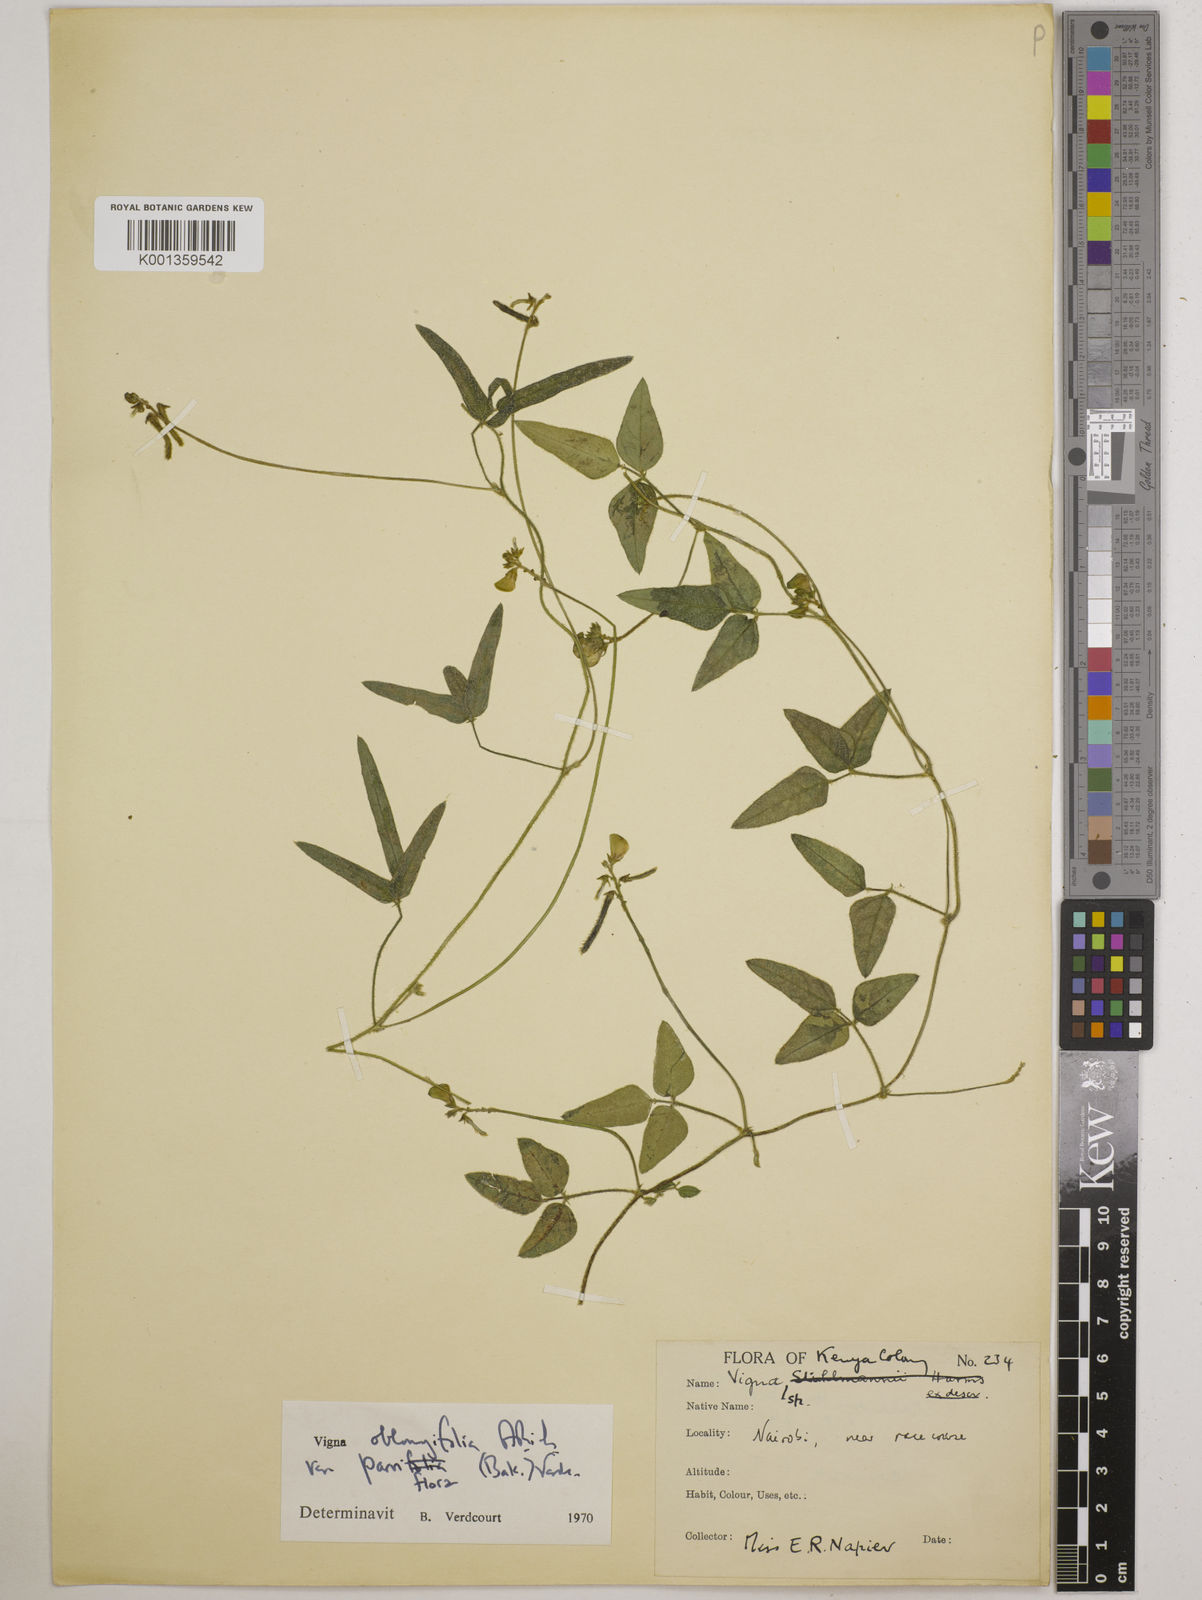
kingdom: Plantae
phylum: Tracheophyta
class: Magnoliopsida
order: Fabales
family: Fabaceae
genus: Vigna
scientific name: Vigna
